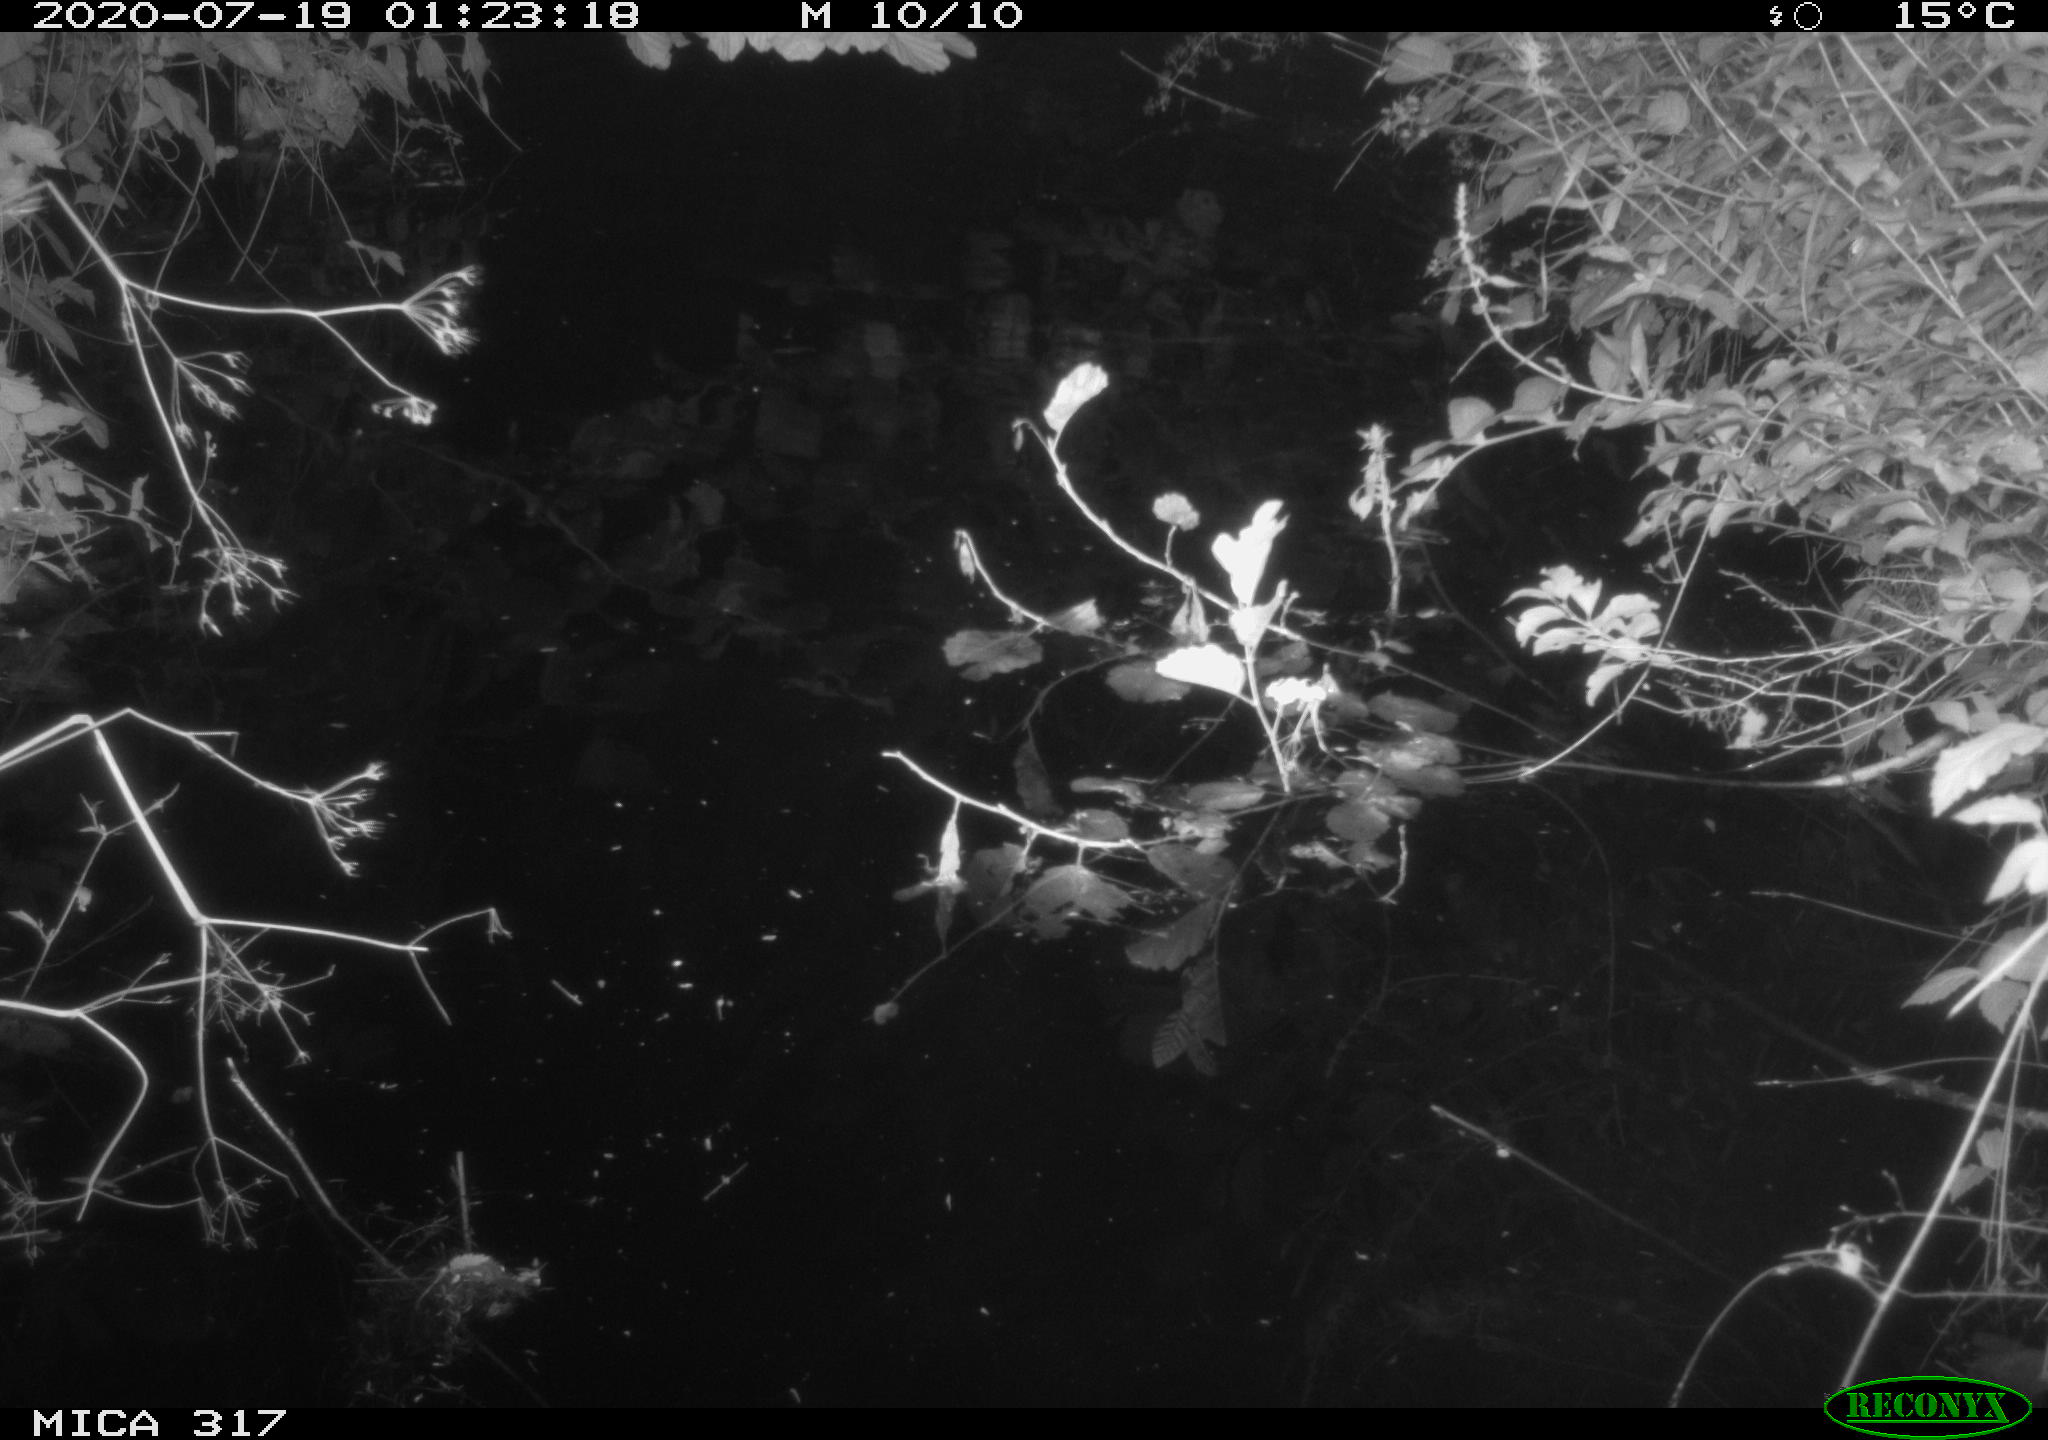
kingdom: Animalia
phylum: Chordata
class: Aves
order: Anseriformes
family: Anatidae
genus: Anas
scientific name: Anas platyrhynchos
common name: Mallard
